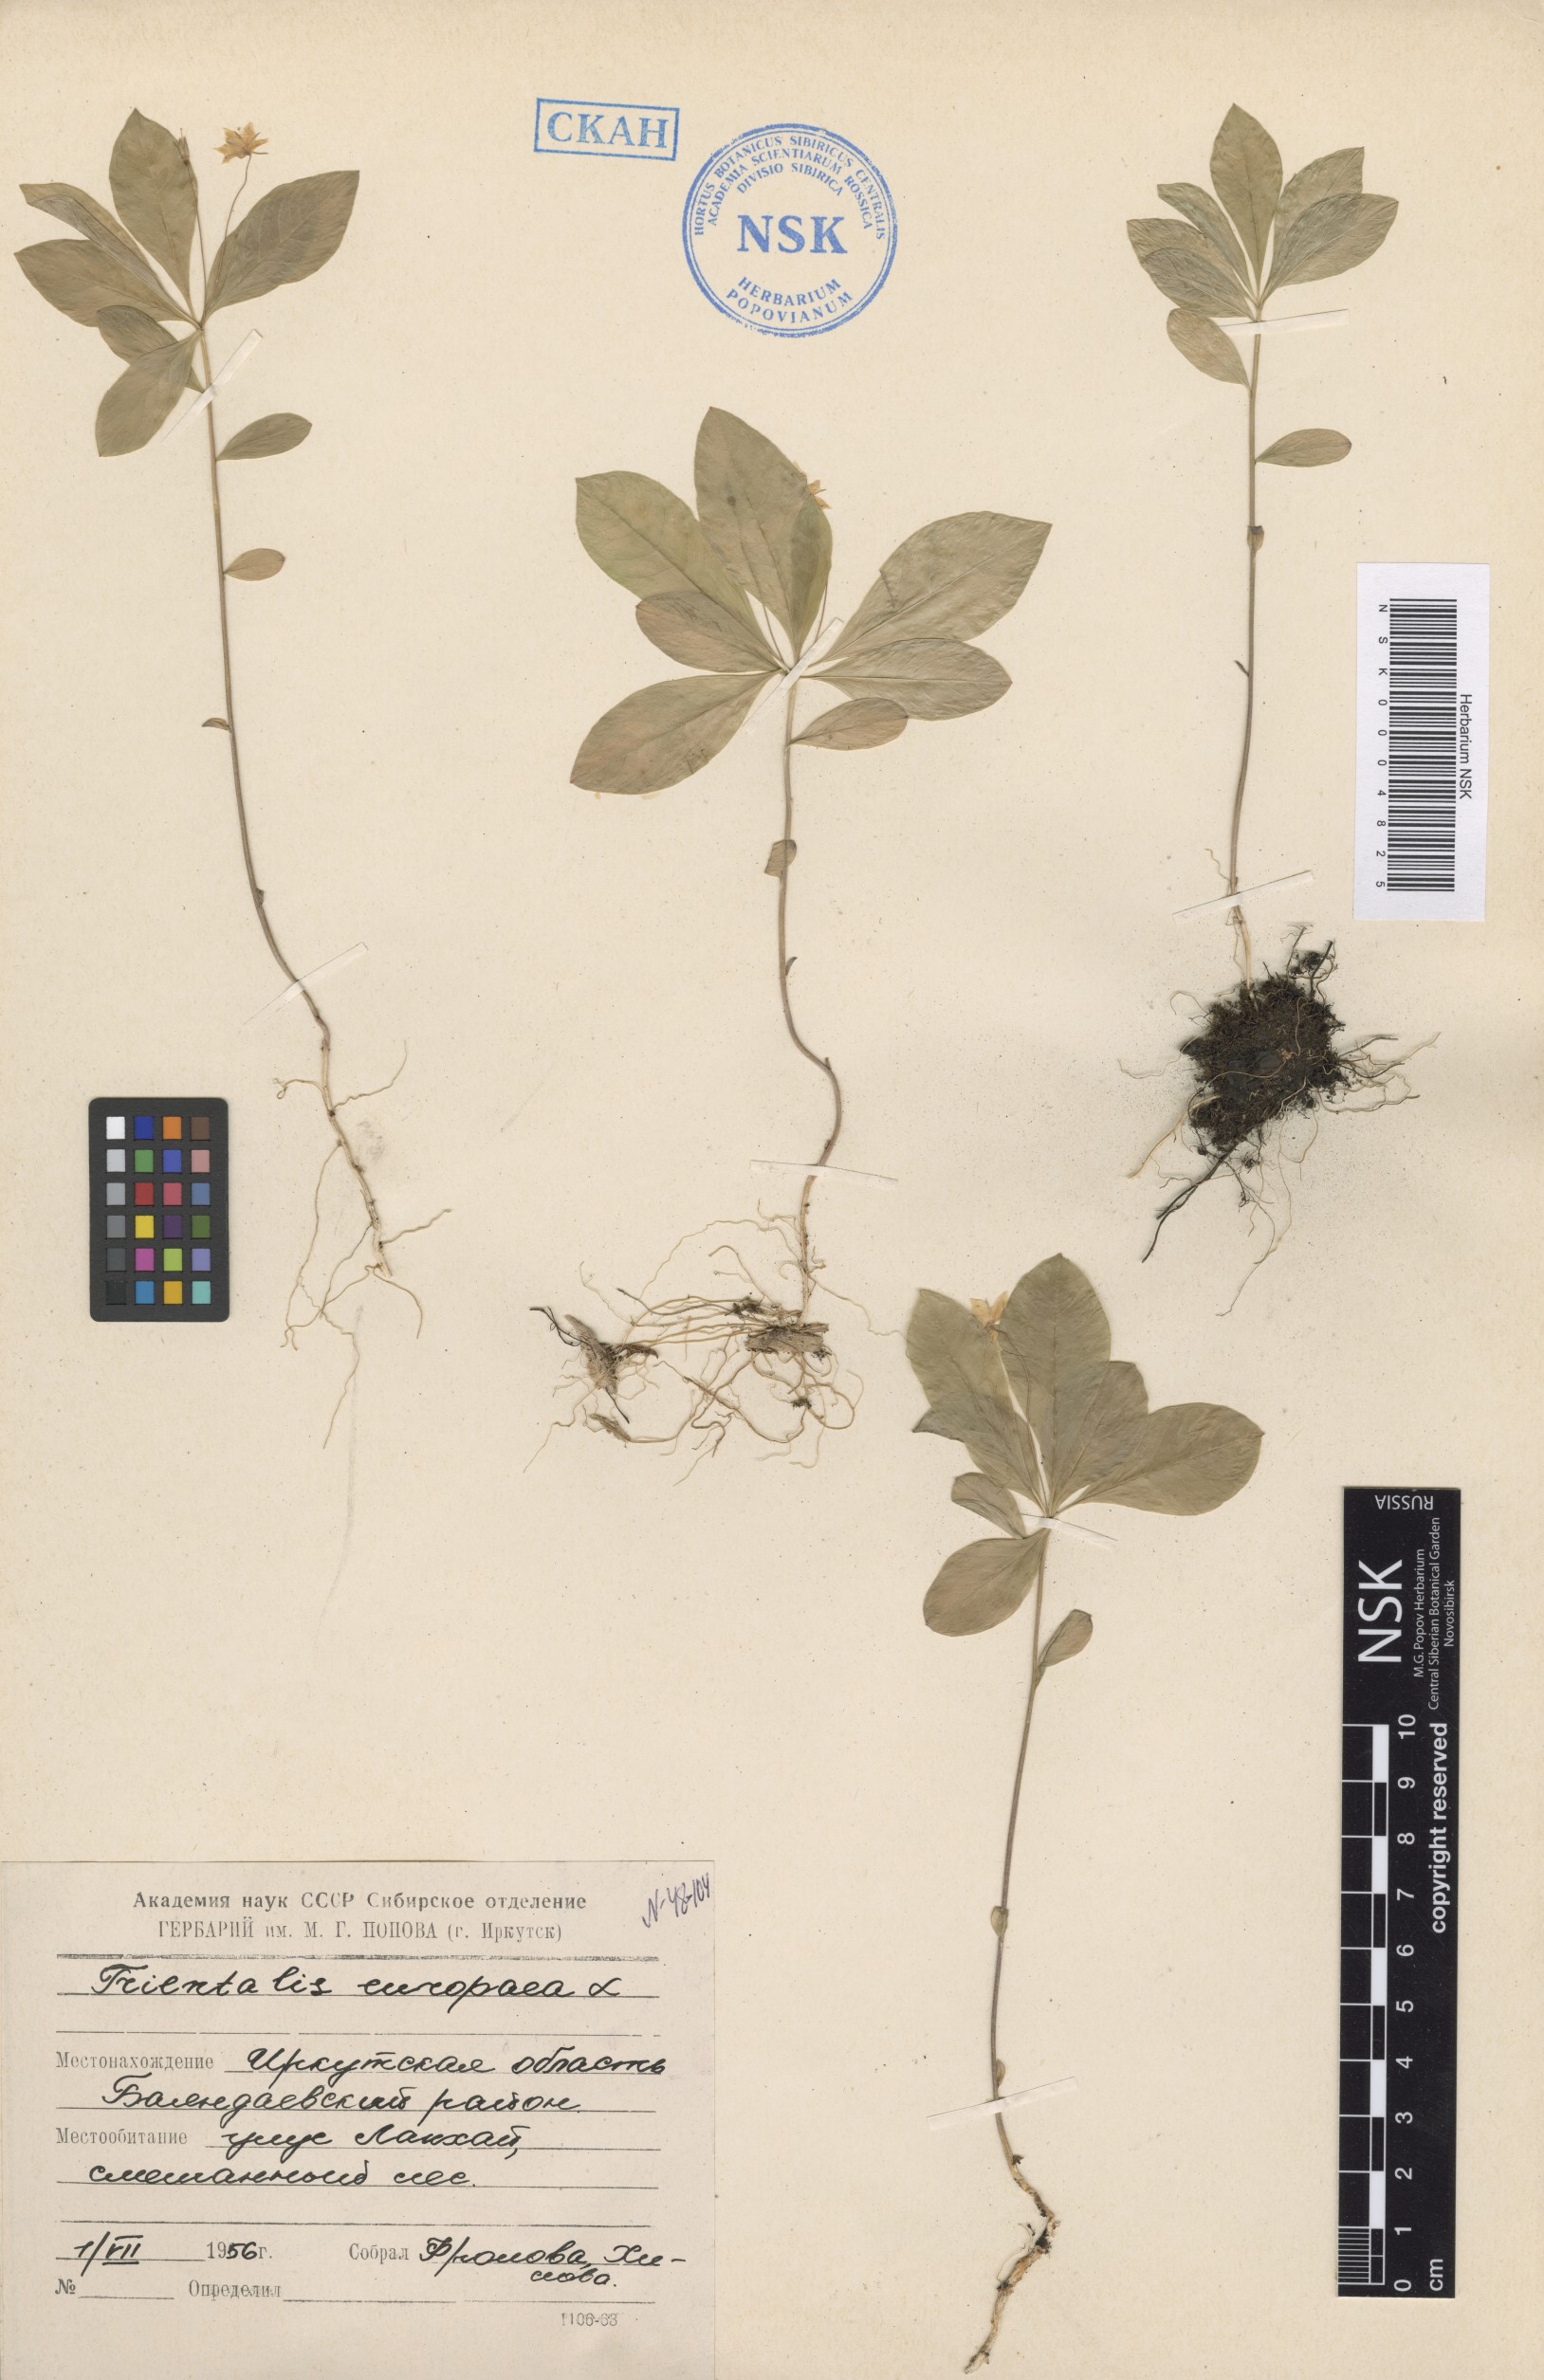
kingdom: Plantae
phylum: Tracheophyta
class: Magnoliopsida
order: Ericales
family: Primulaceae
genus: Lysimachia
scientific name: Lysimachia europaea
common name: Arctic starflower
